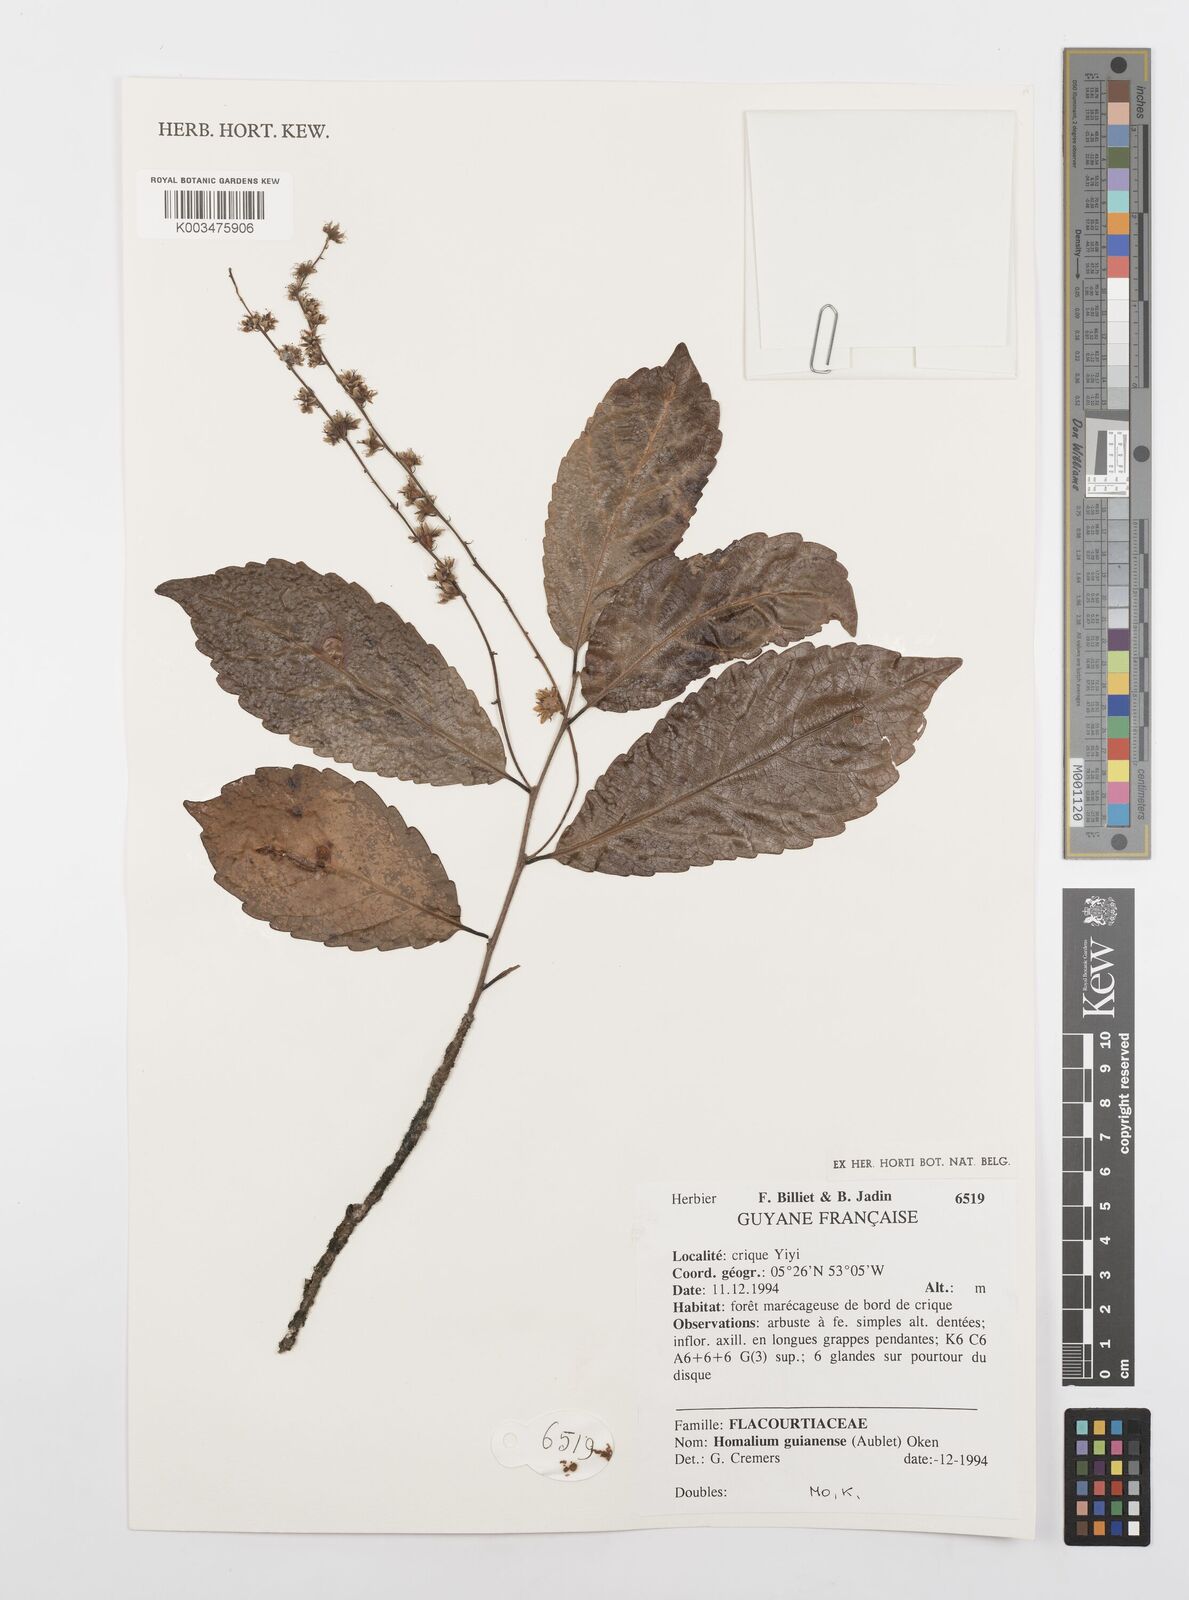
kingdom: Plantae
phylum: Tracheophyta
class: Magnoliopsida
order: Malpighiales
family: Salicaceae
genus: Homalium
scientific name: Homalium guianense
